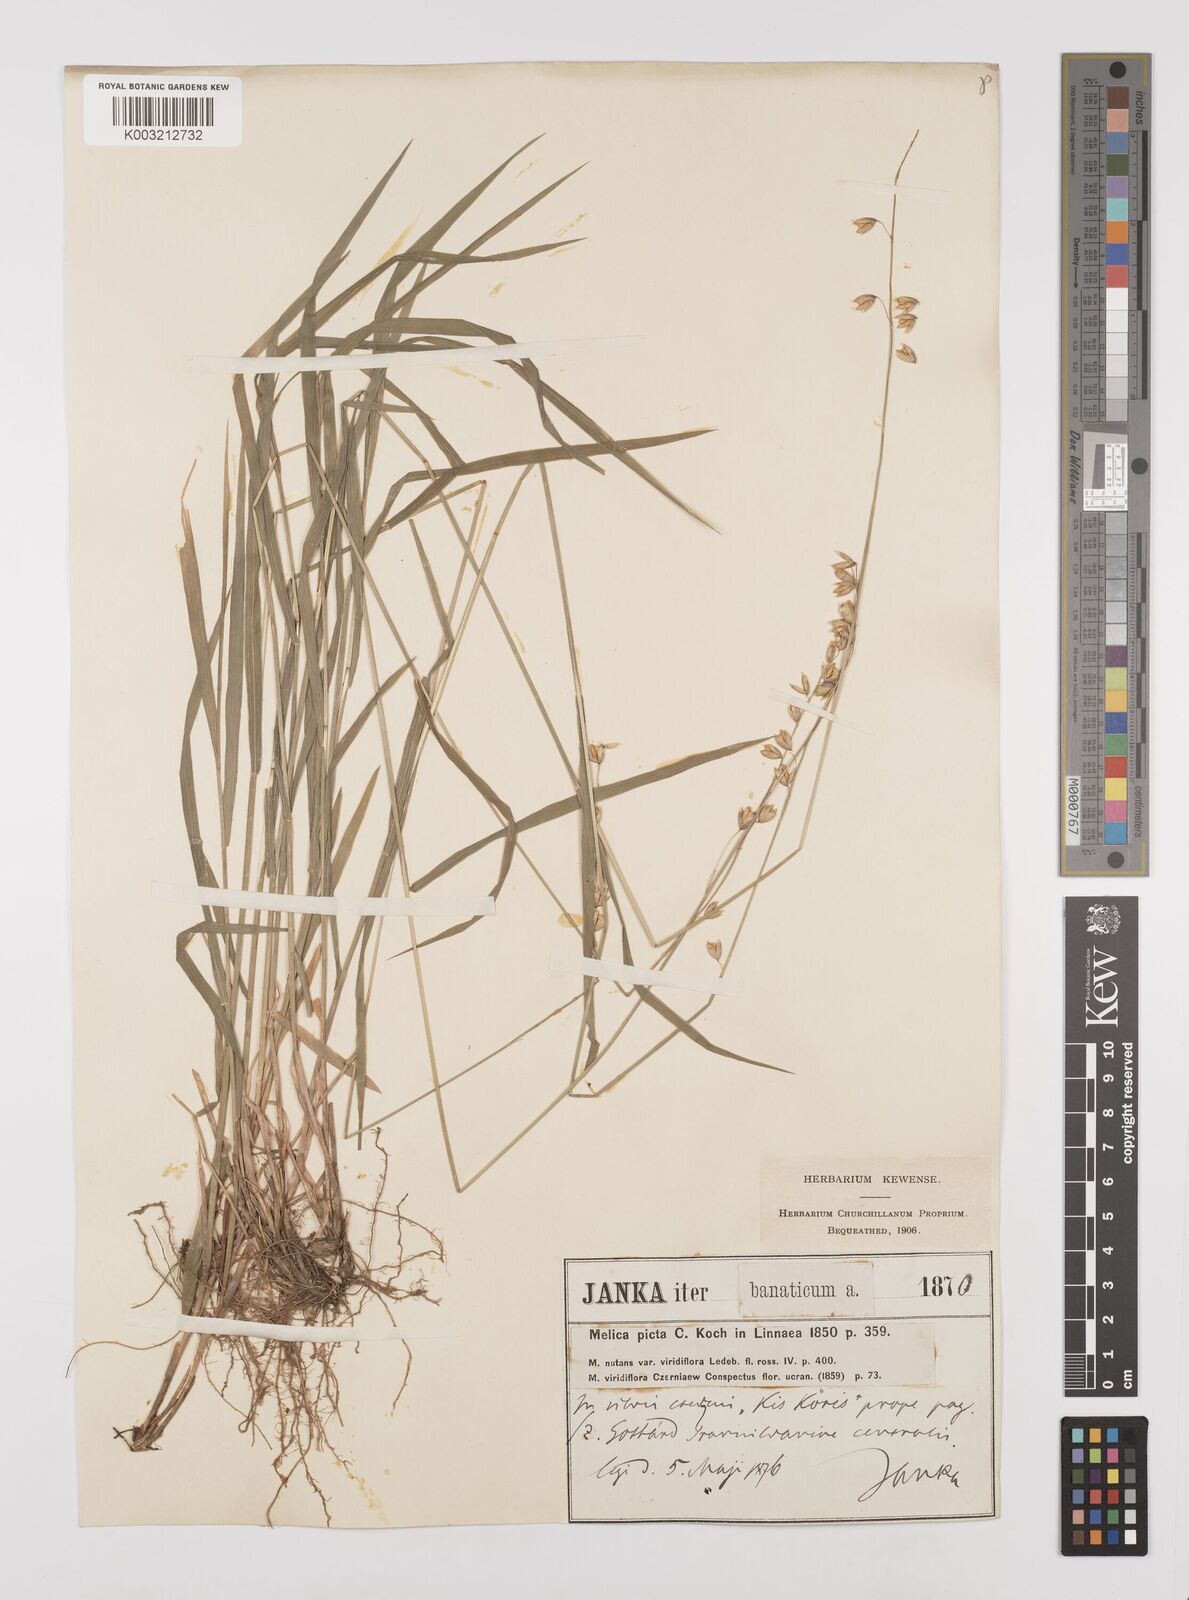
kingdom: Plantae
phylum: Tracheophyta
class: Liliopsida
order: Poales
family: Poaceae
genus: Melica
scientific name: Melica picta
